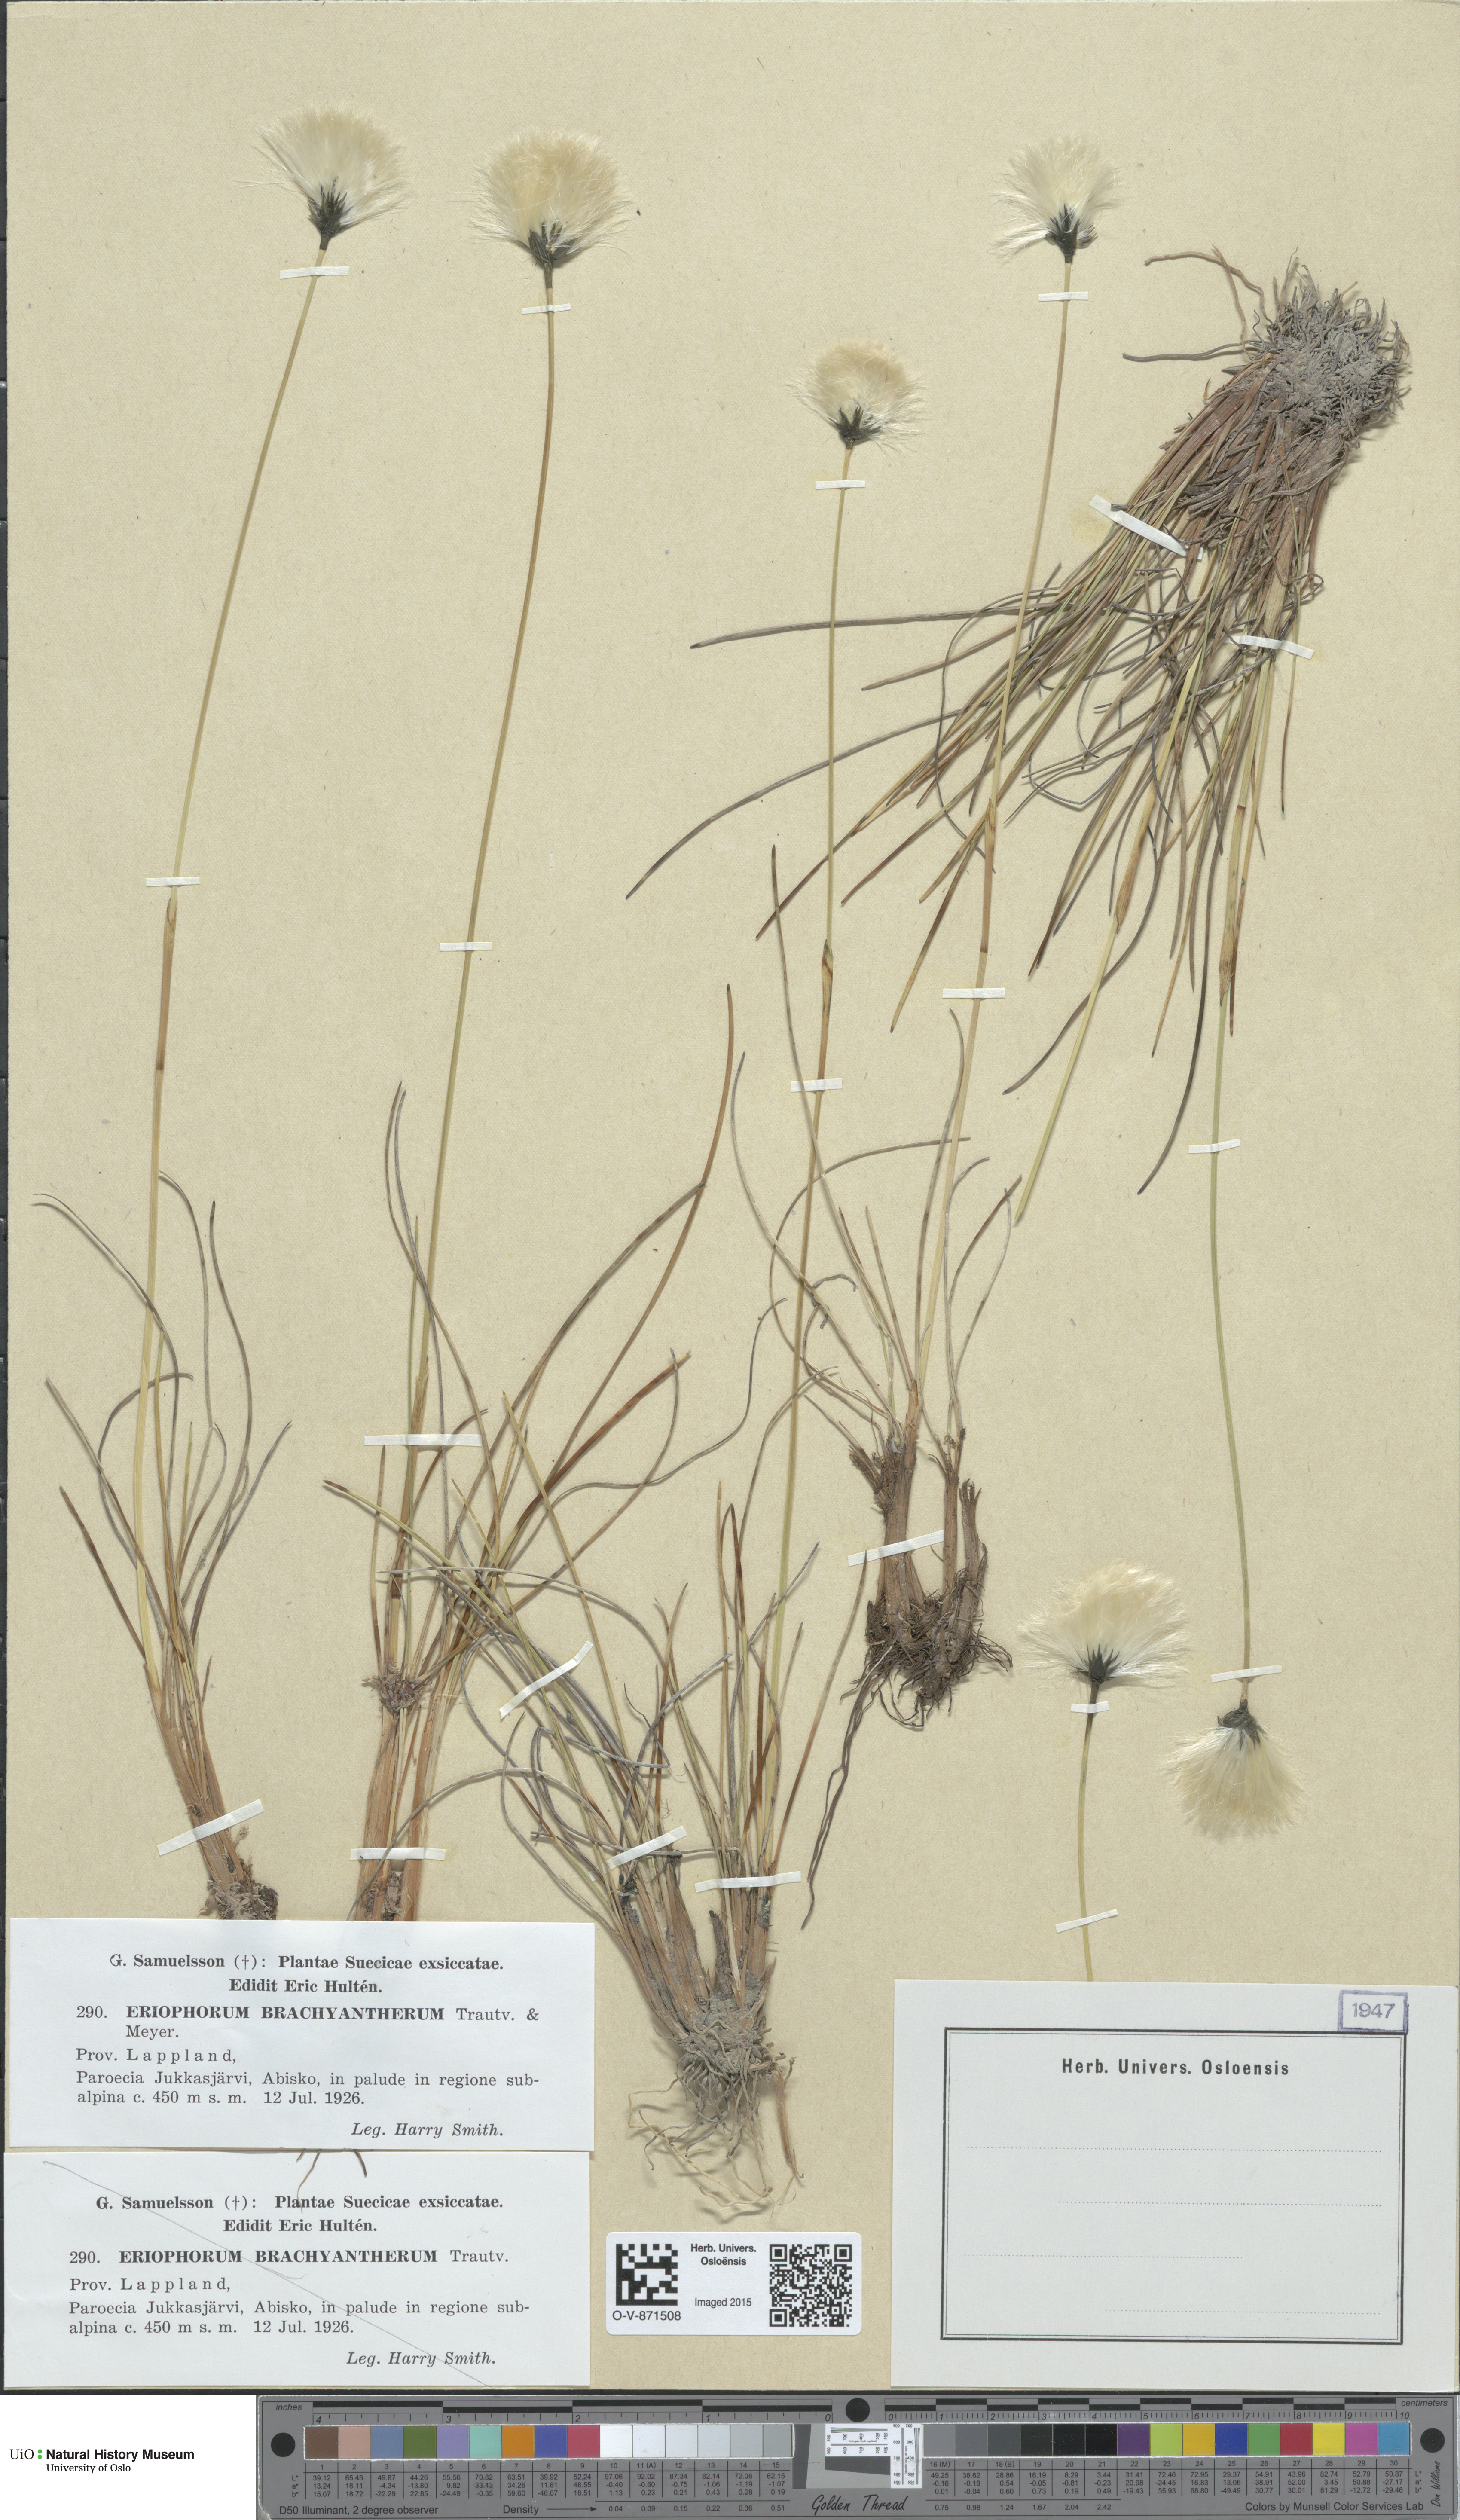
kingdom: Plantae
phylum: Tracheophyta
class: Liliopsida
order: Poales
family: Cyperaceae
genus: Eriophorum
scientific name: Eriophorum brachyantherum
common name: Closed-sheathed cottongrass
